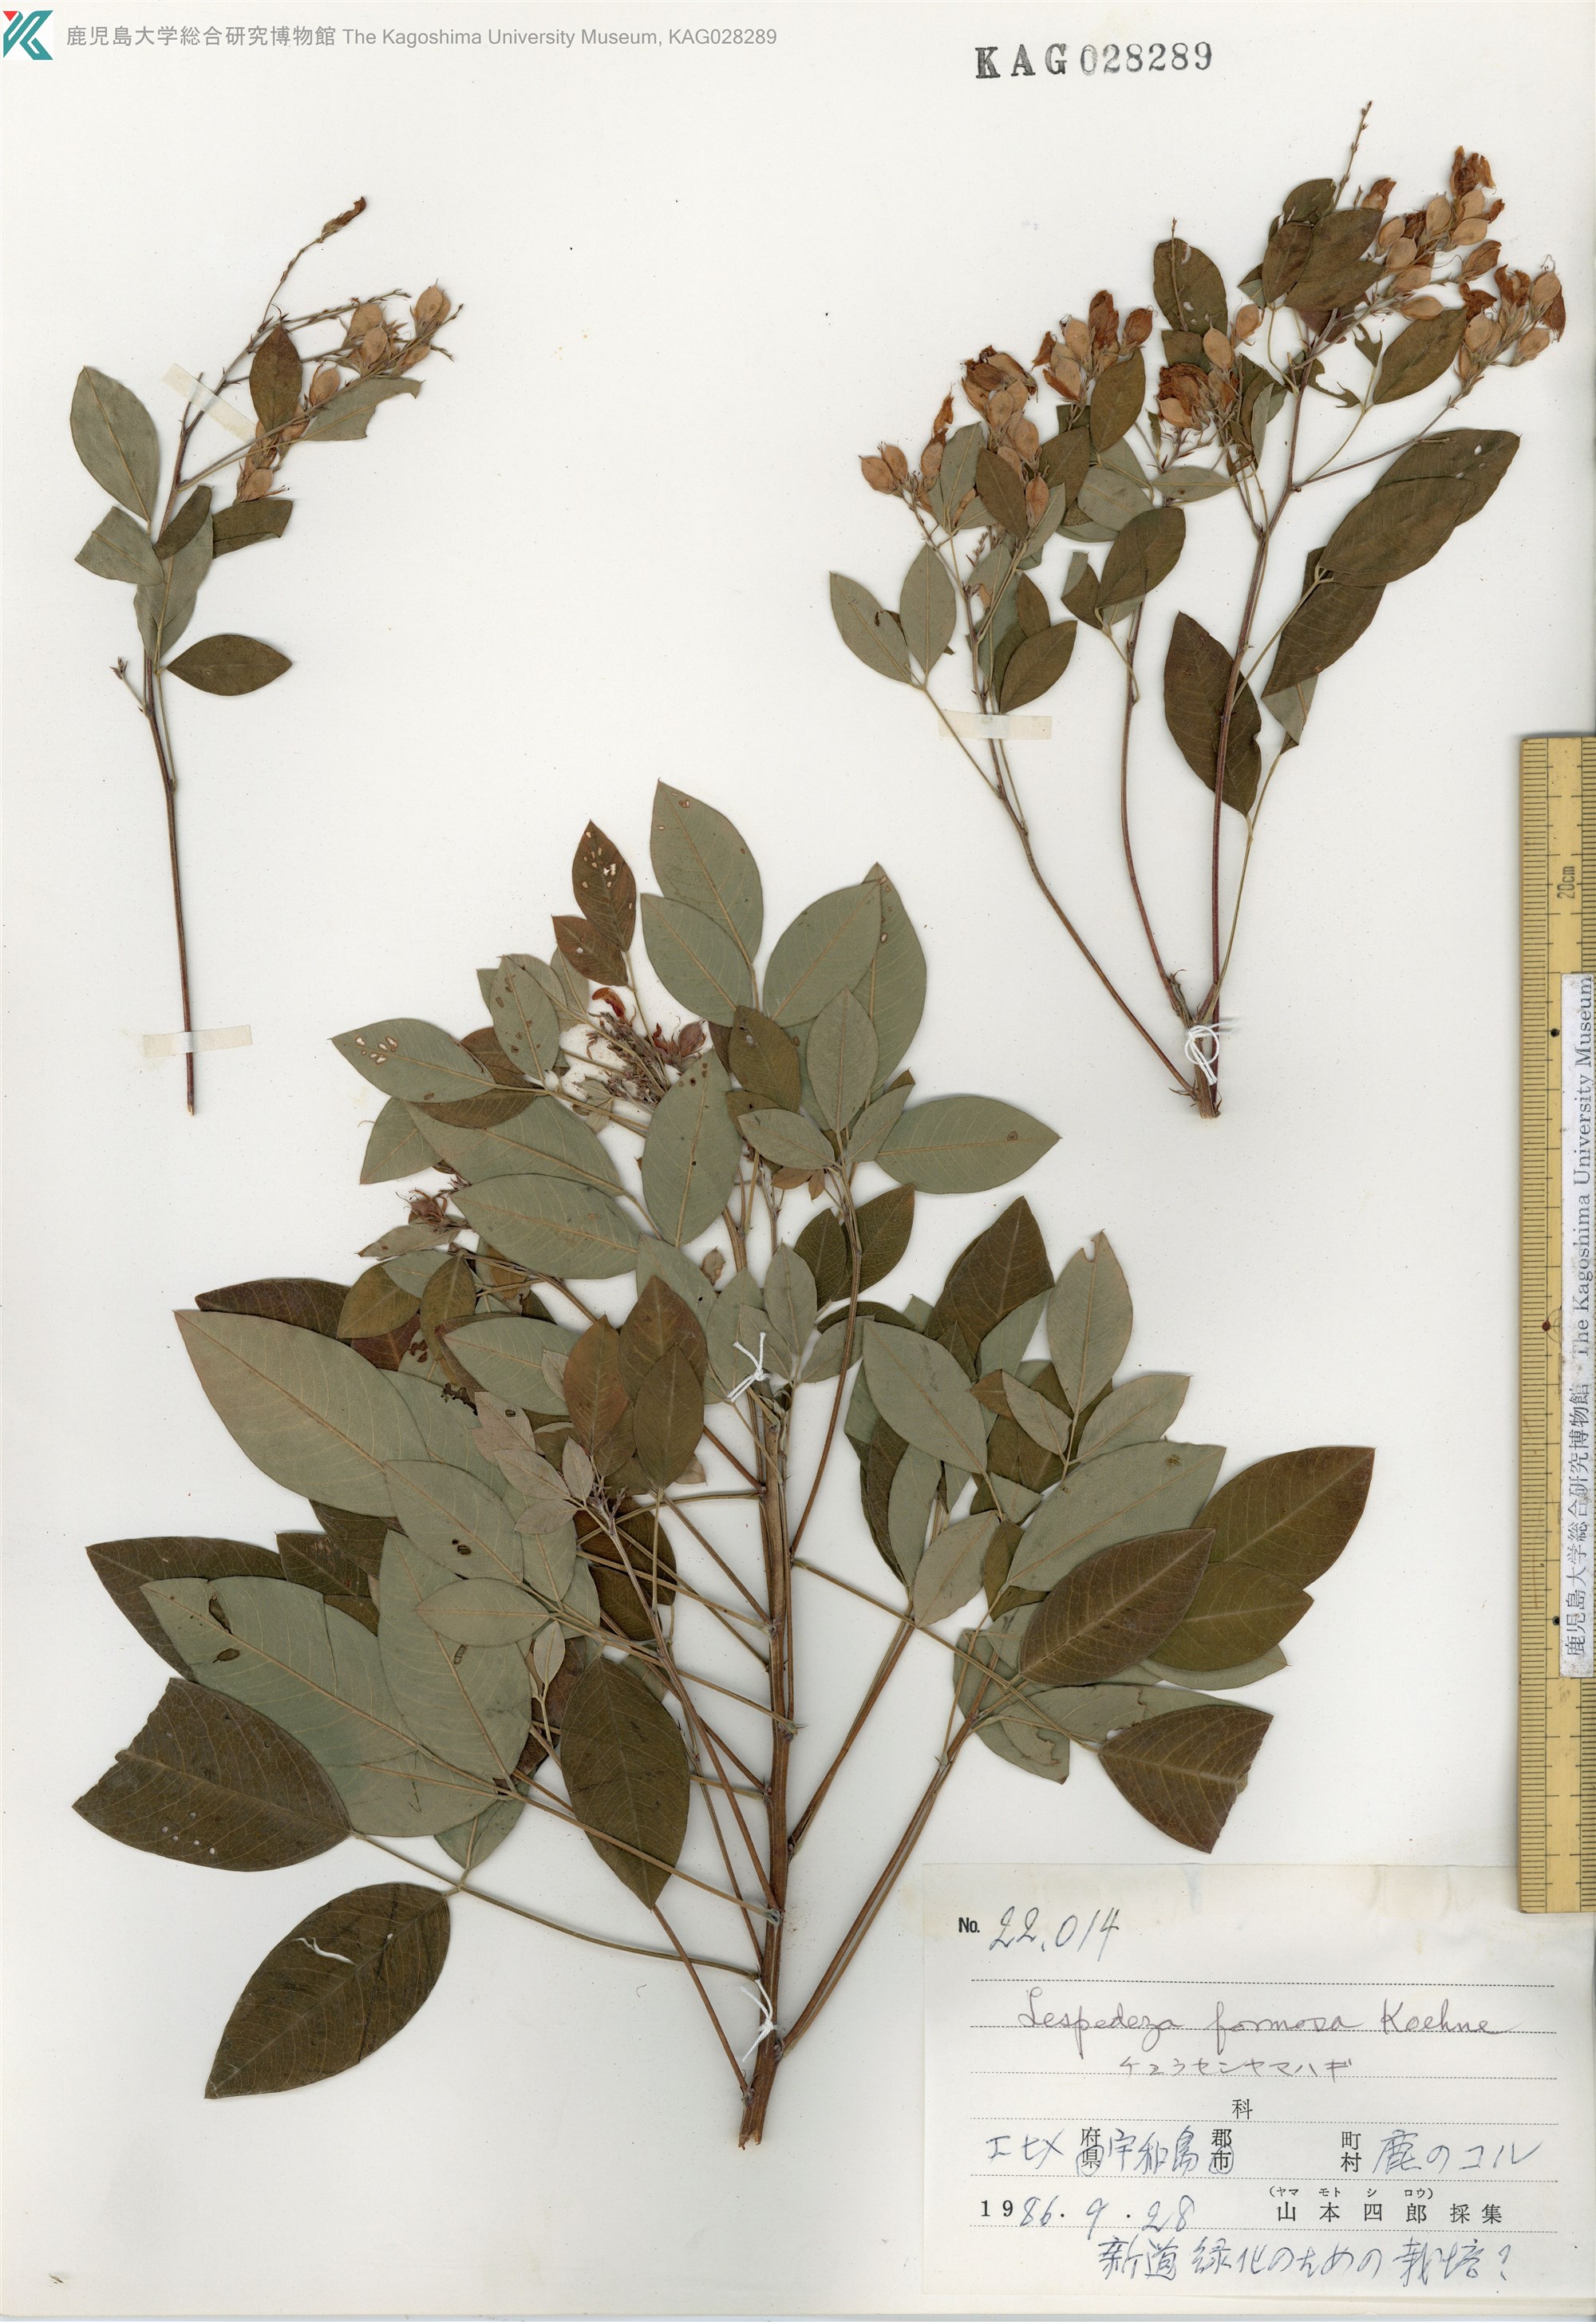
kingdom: Plantae
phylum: Tracheophyta
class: Magnoliopsida
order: Fabales
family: Fabaceae
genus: Lespedeza
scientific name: Lespedeza thunbergii
